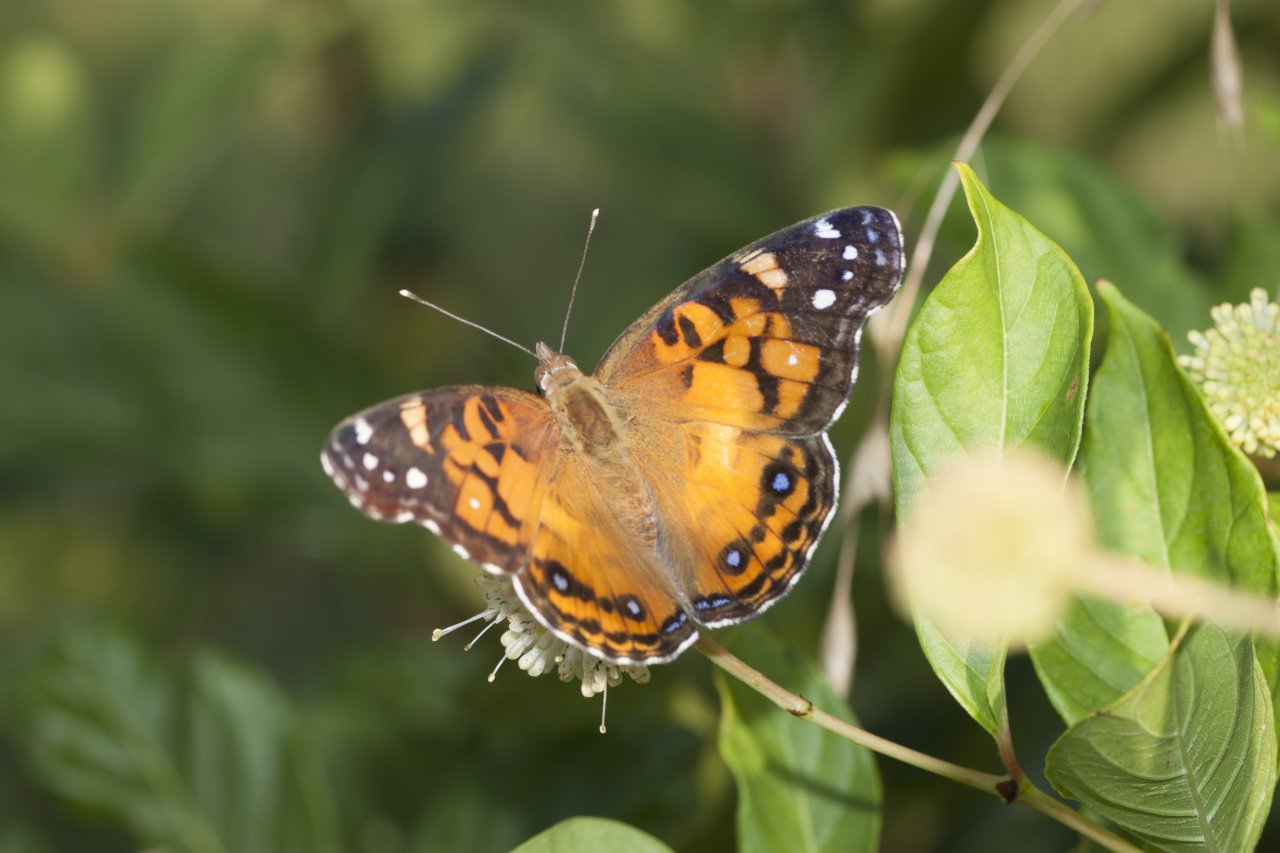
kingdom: Animalia
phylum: Arthropoda
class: Insecta
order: Lepidoptera
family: Nymphalidae
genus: Vanessa
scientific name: Vanessa virginiensis
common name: American Lady
